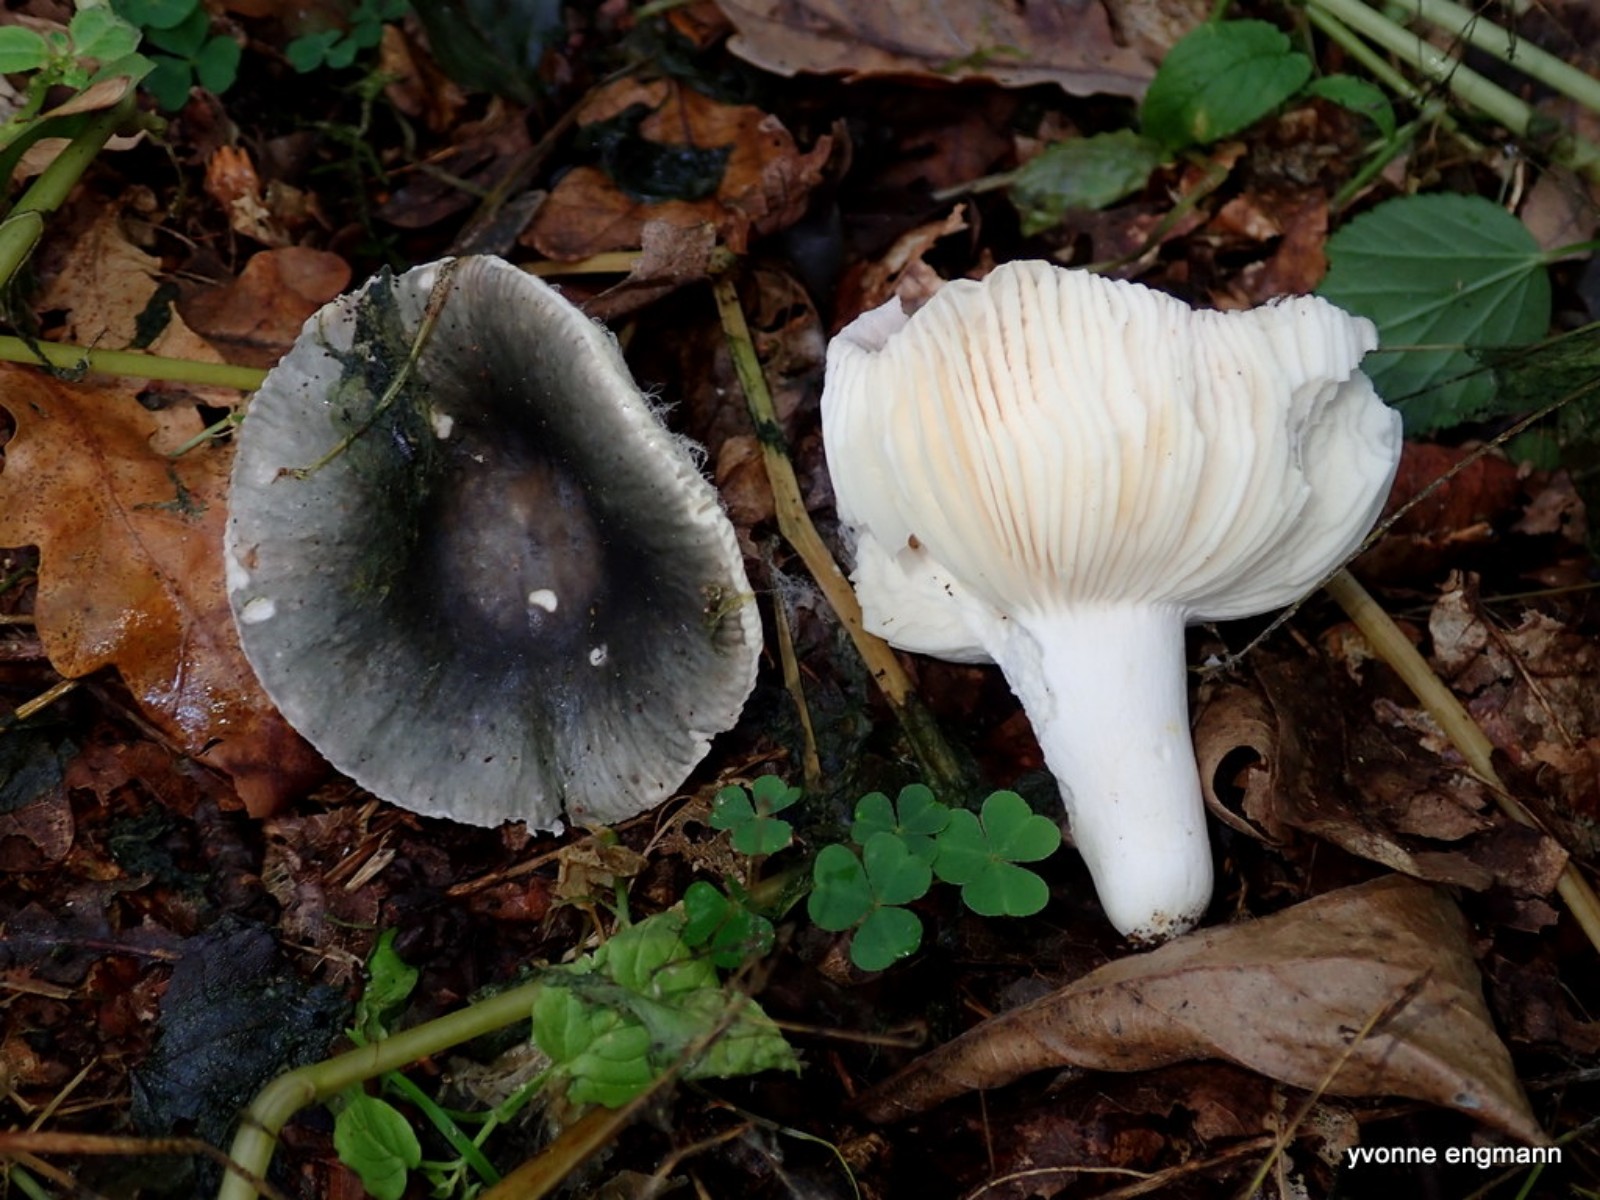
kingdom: Fungi
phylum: Basidiomycota
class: Agaricomycetes
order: Russulales
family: Russulaceae
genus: Russula
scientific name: Russula
